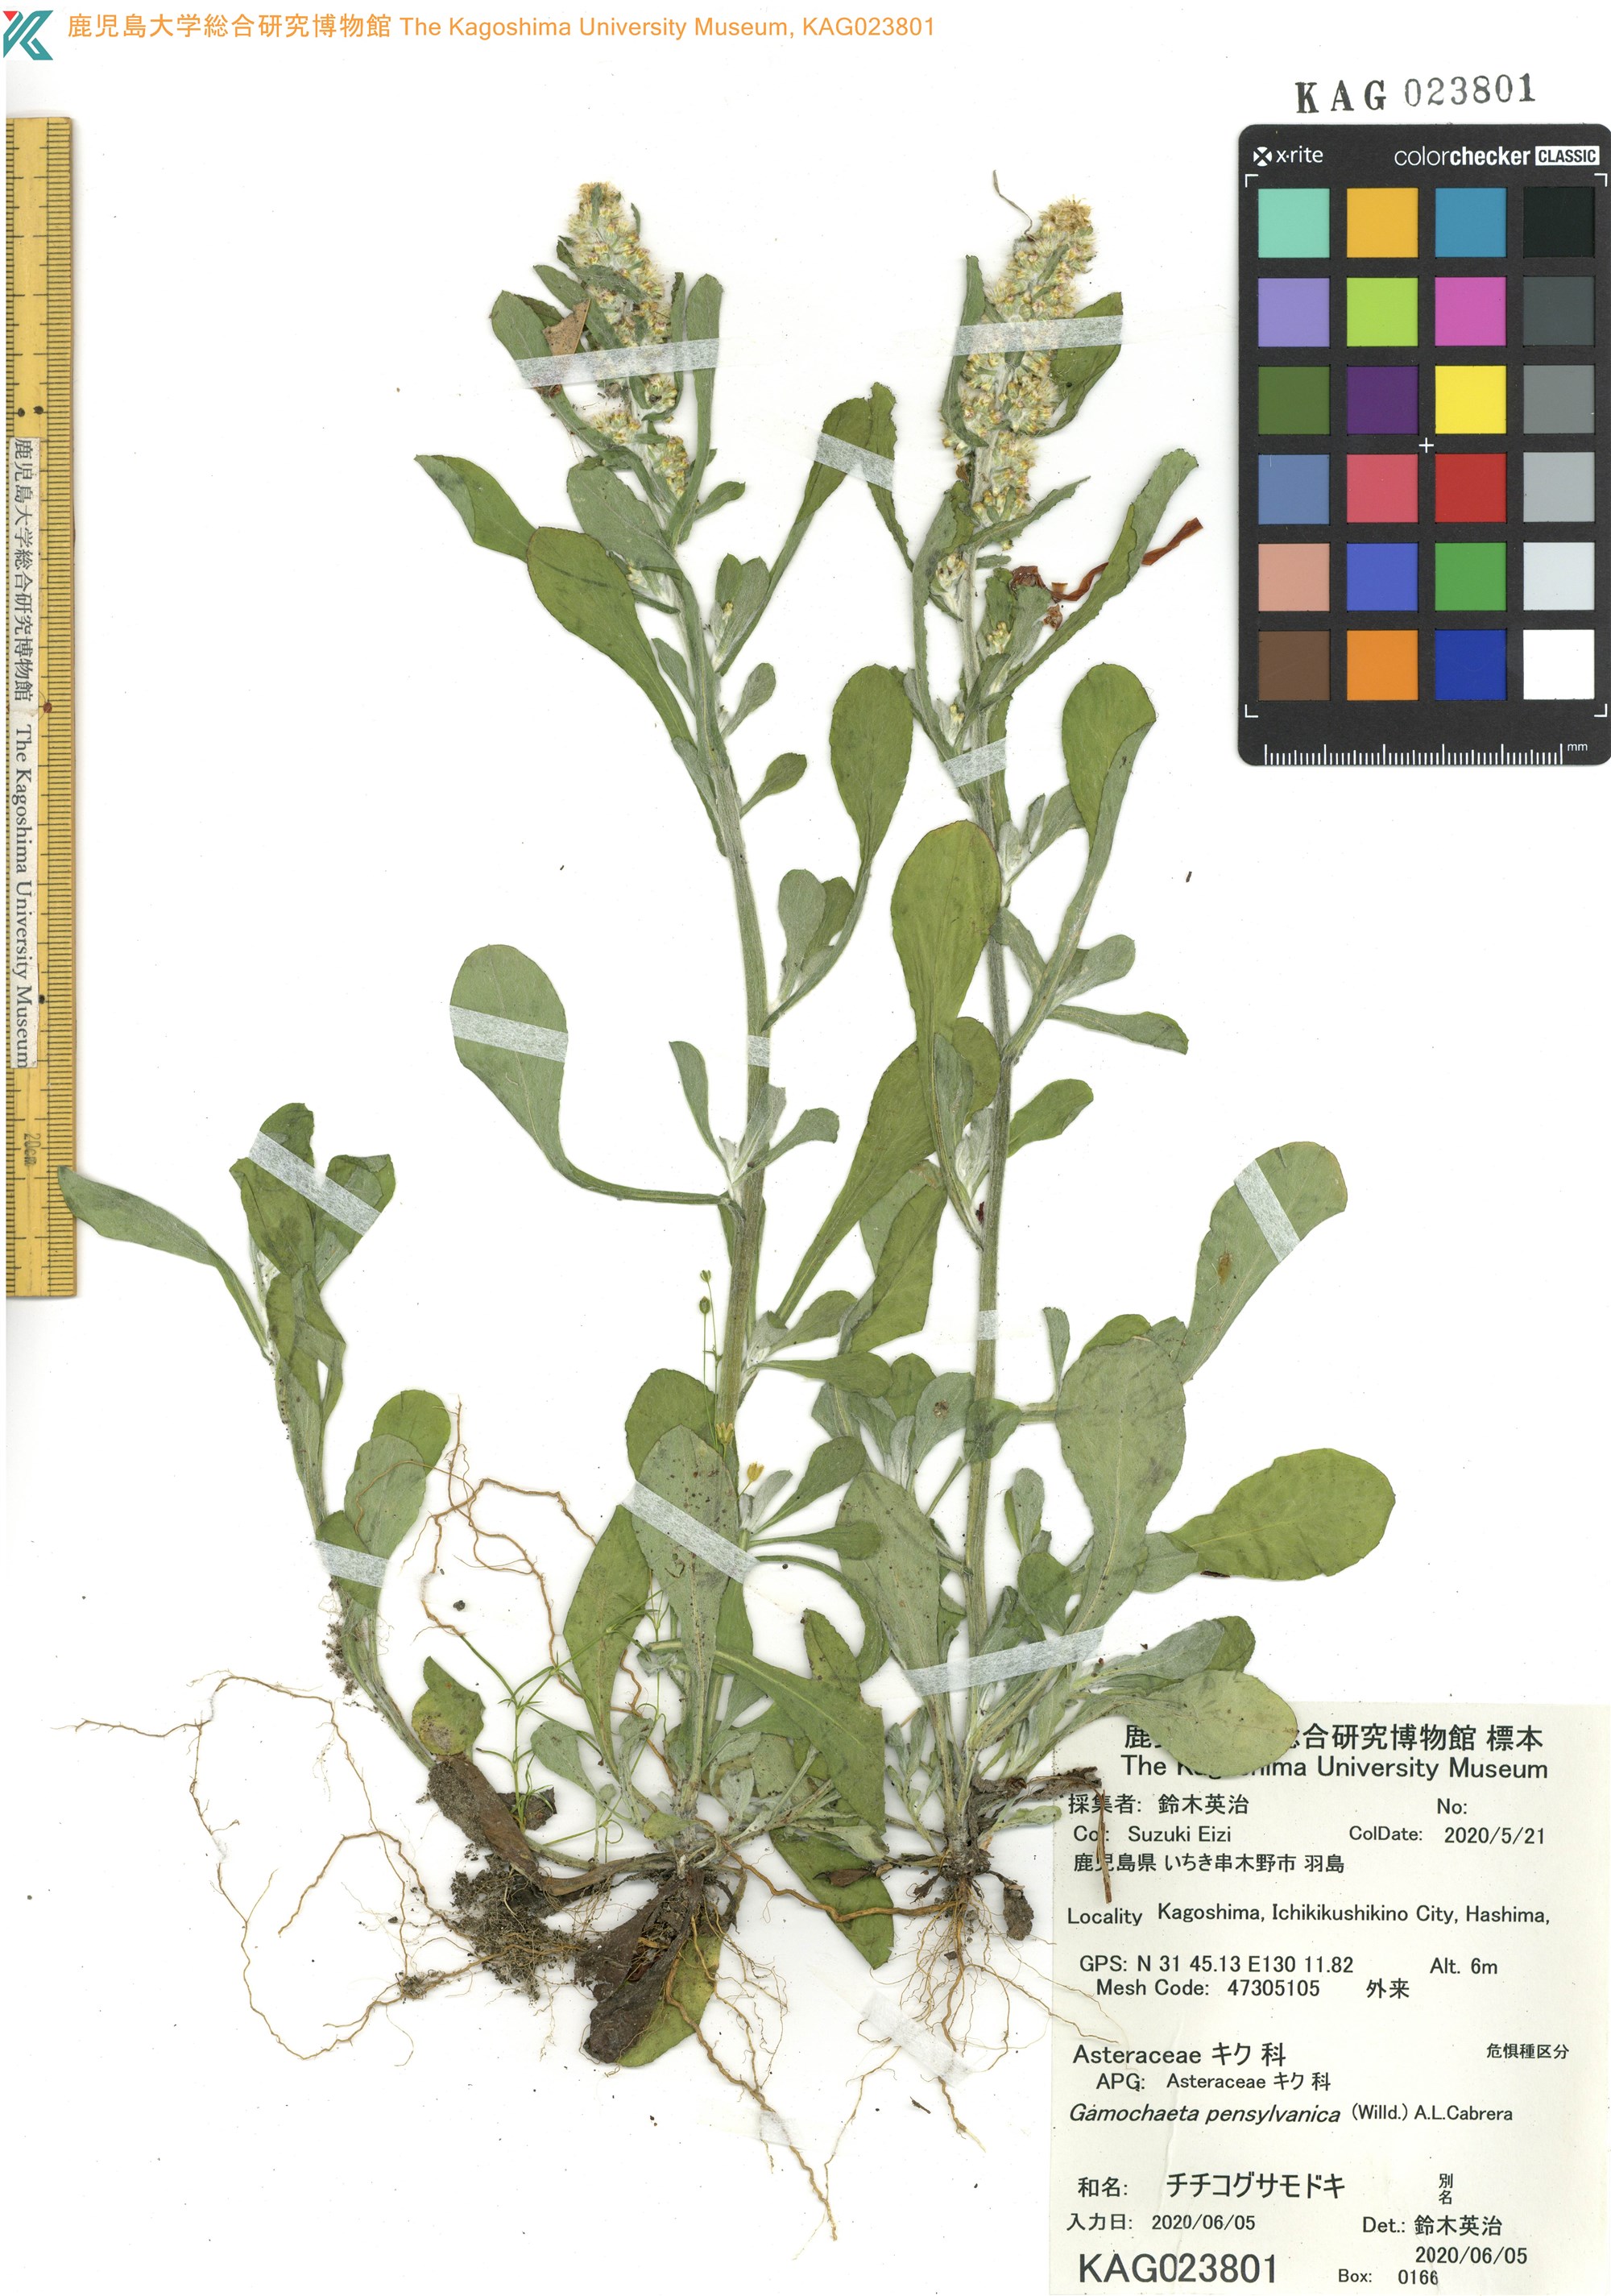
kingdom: Plantae
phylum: Tracheophyta
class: Magnoliopsida
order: Asterales
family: Asteraceae
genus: Gamochaeta
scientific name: Gamochaeta pensylvanica
